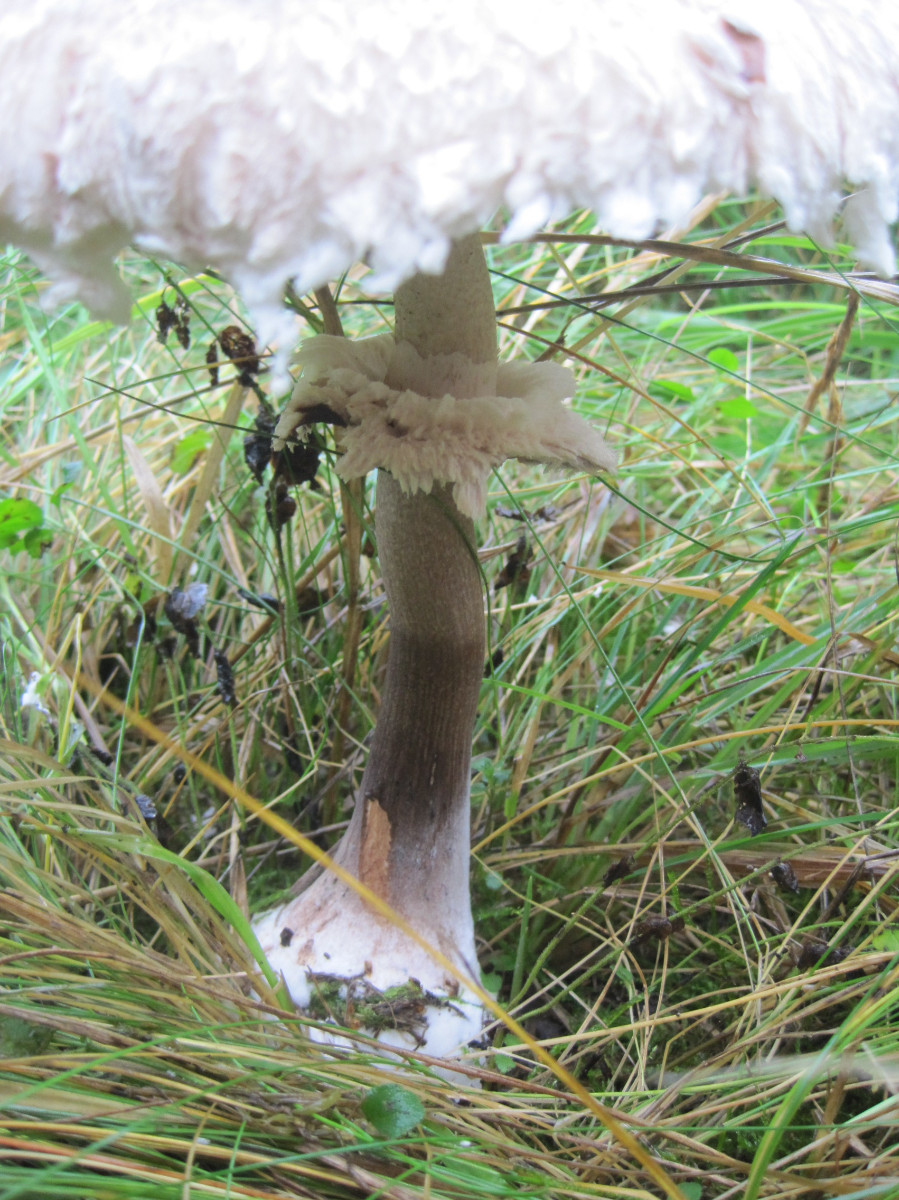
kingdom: Fungi
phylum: Basidiomycota
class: Agaricomycetes
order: Agaricales
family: Agaricaceae
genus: Chlorophyllum
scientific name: Chlorophyllum rhacodes
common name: ægte rabarberhat
